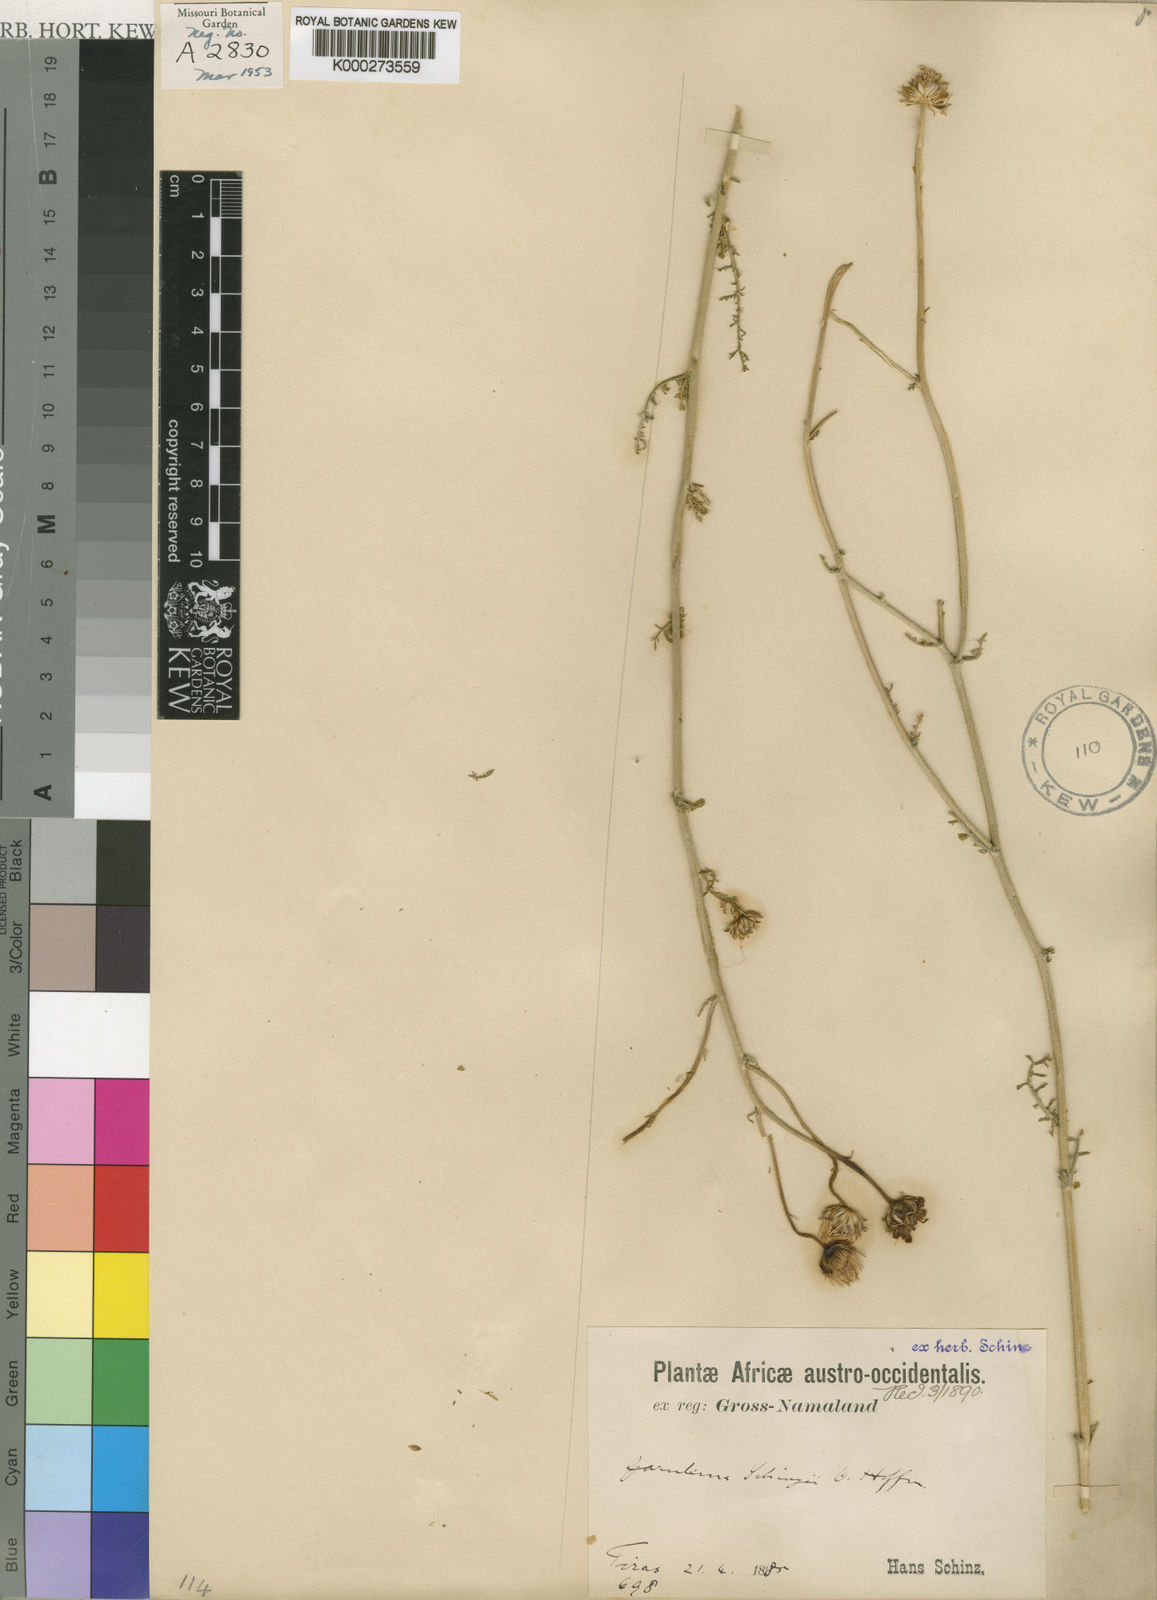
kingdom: Plantae
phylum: Tracheophyta
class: Magnoliopsida
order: Asterales
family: Asteraceae
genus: Garuleum
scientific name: Garuleum schinzii
